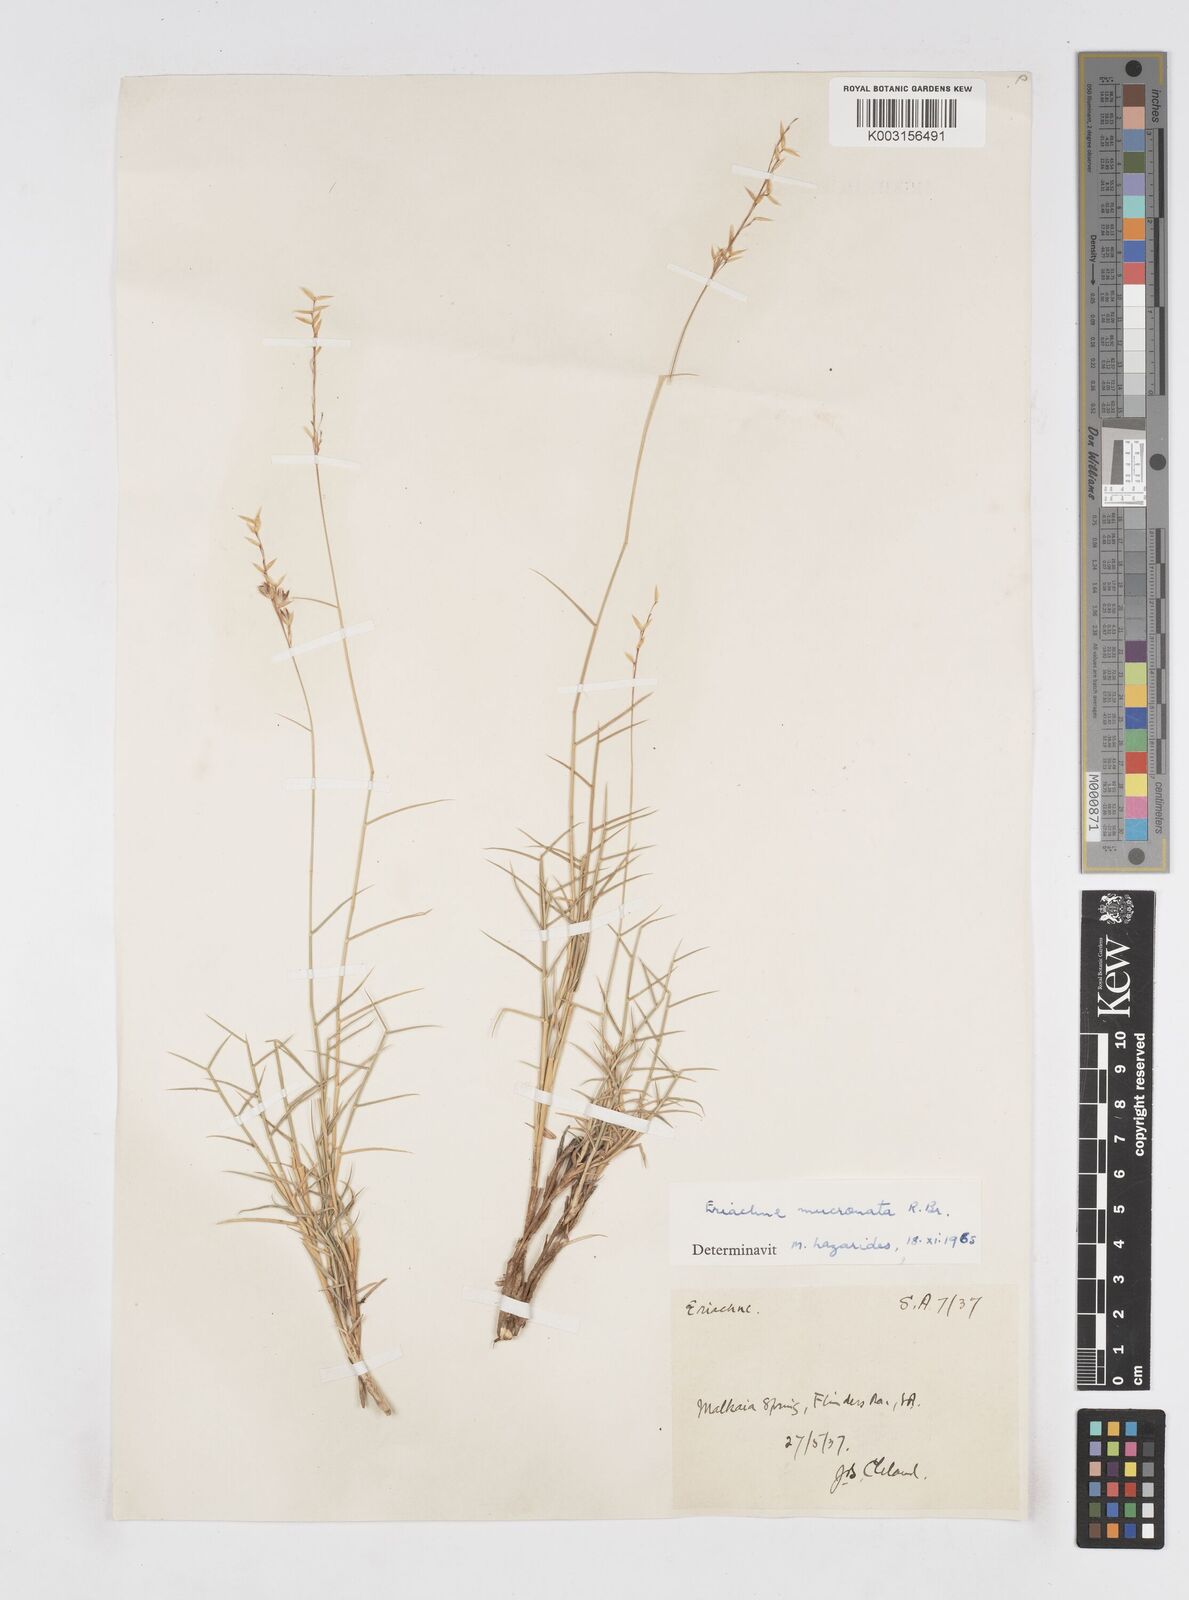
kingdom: Plantae
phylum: Tracheophyta
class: Liliopsida
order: Poales
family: Poaceae
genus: Eriachne
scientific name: Eriachne mucronata
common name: Mountain wanderrie grass
